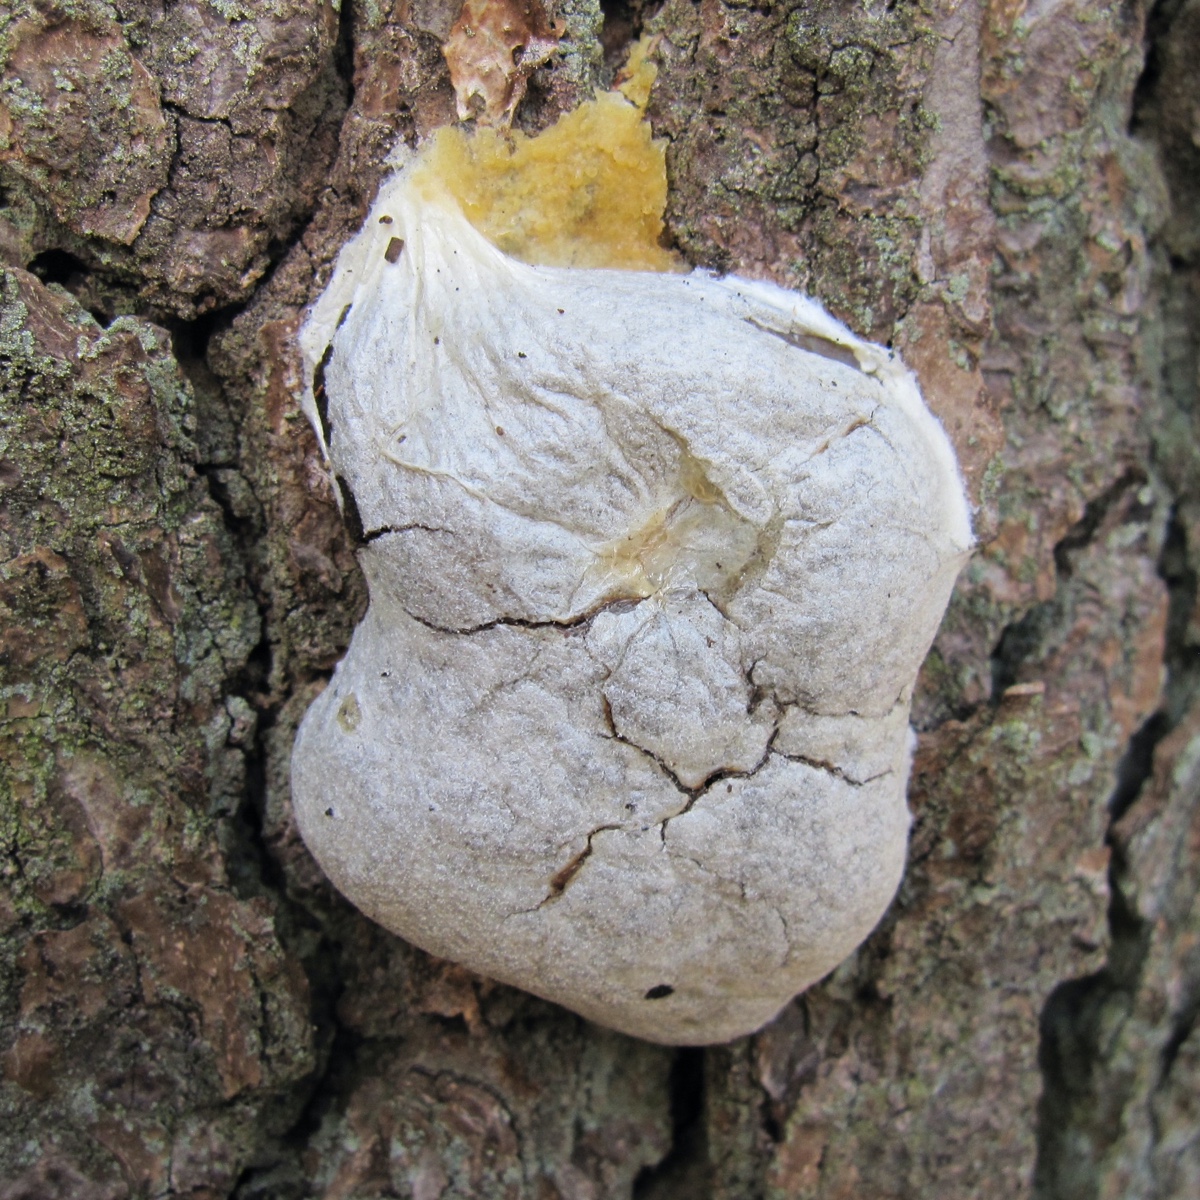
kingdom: Protozoa
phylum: Mycetozoa
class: Myxomycetes
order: Cribrariales
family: Tubiferaceae
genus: Reticularia
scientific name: Reticularia lycoperdon
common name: skinnende støvpude
